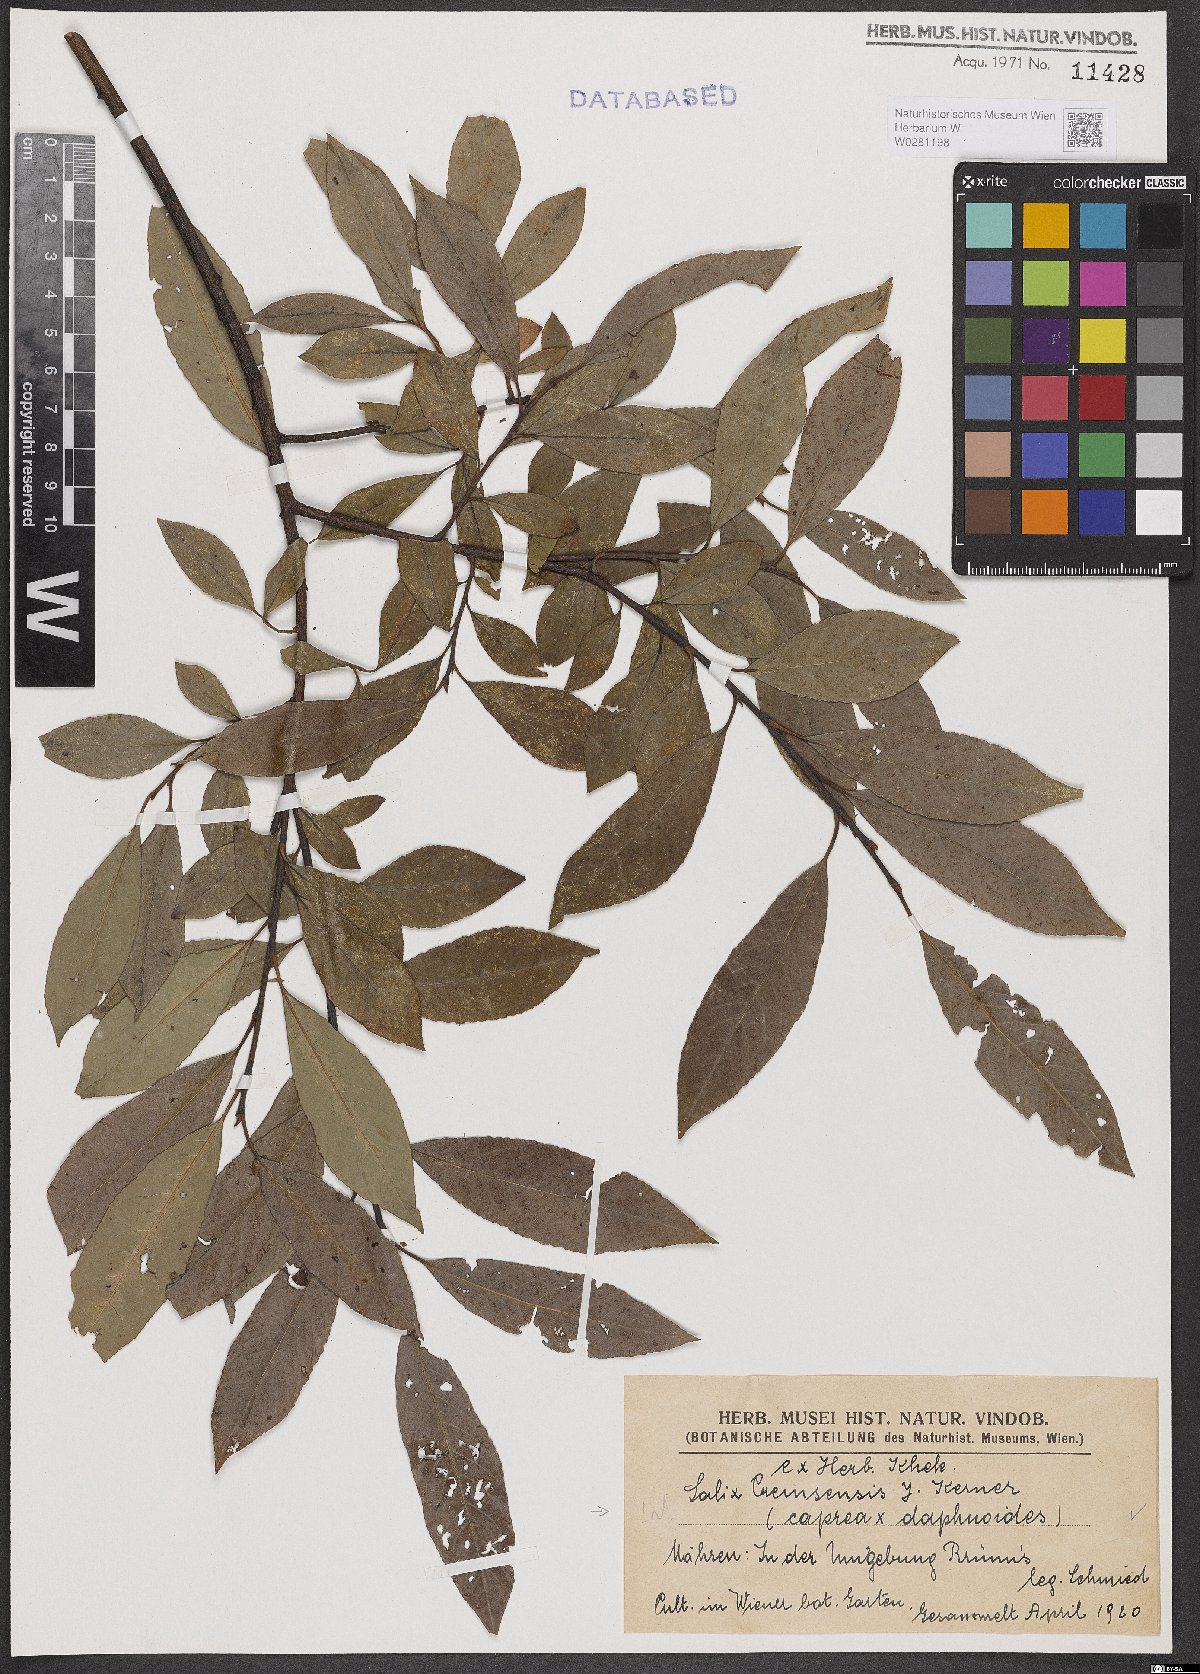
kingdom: Plantae
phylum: Tracheophyta
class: Magnoliopsida
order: Malpighiales
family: Salicaceae
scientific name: Salicaceae
